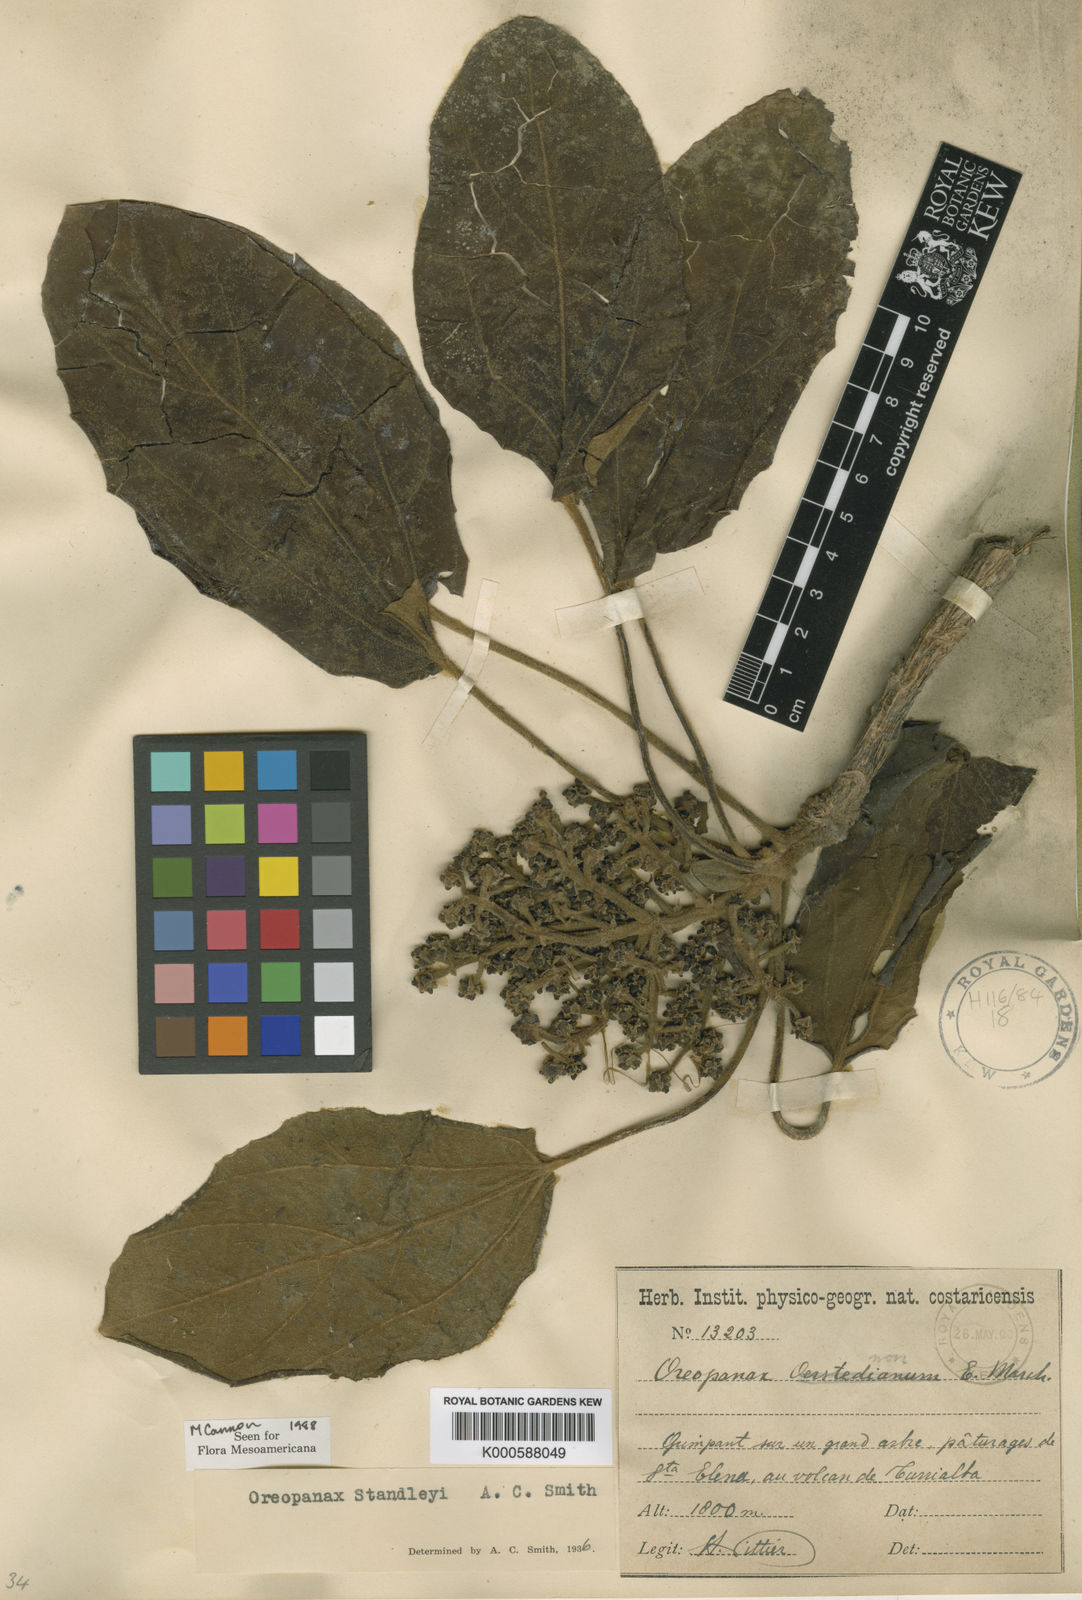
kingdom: Plantae
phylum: Tracheophyta
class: Magnoliopsida
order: Apiales
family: Araliaceae
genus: Oreopanax
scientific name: Oreopanax standleyi
